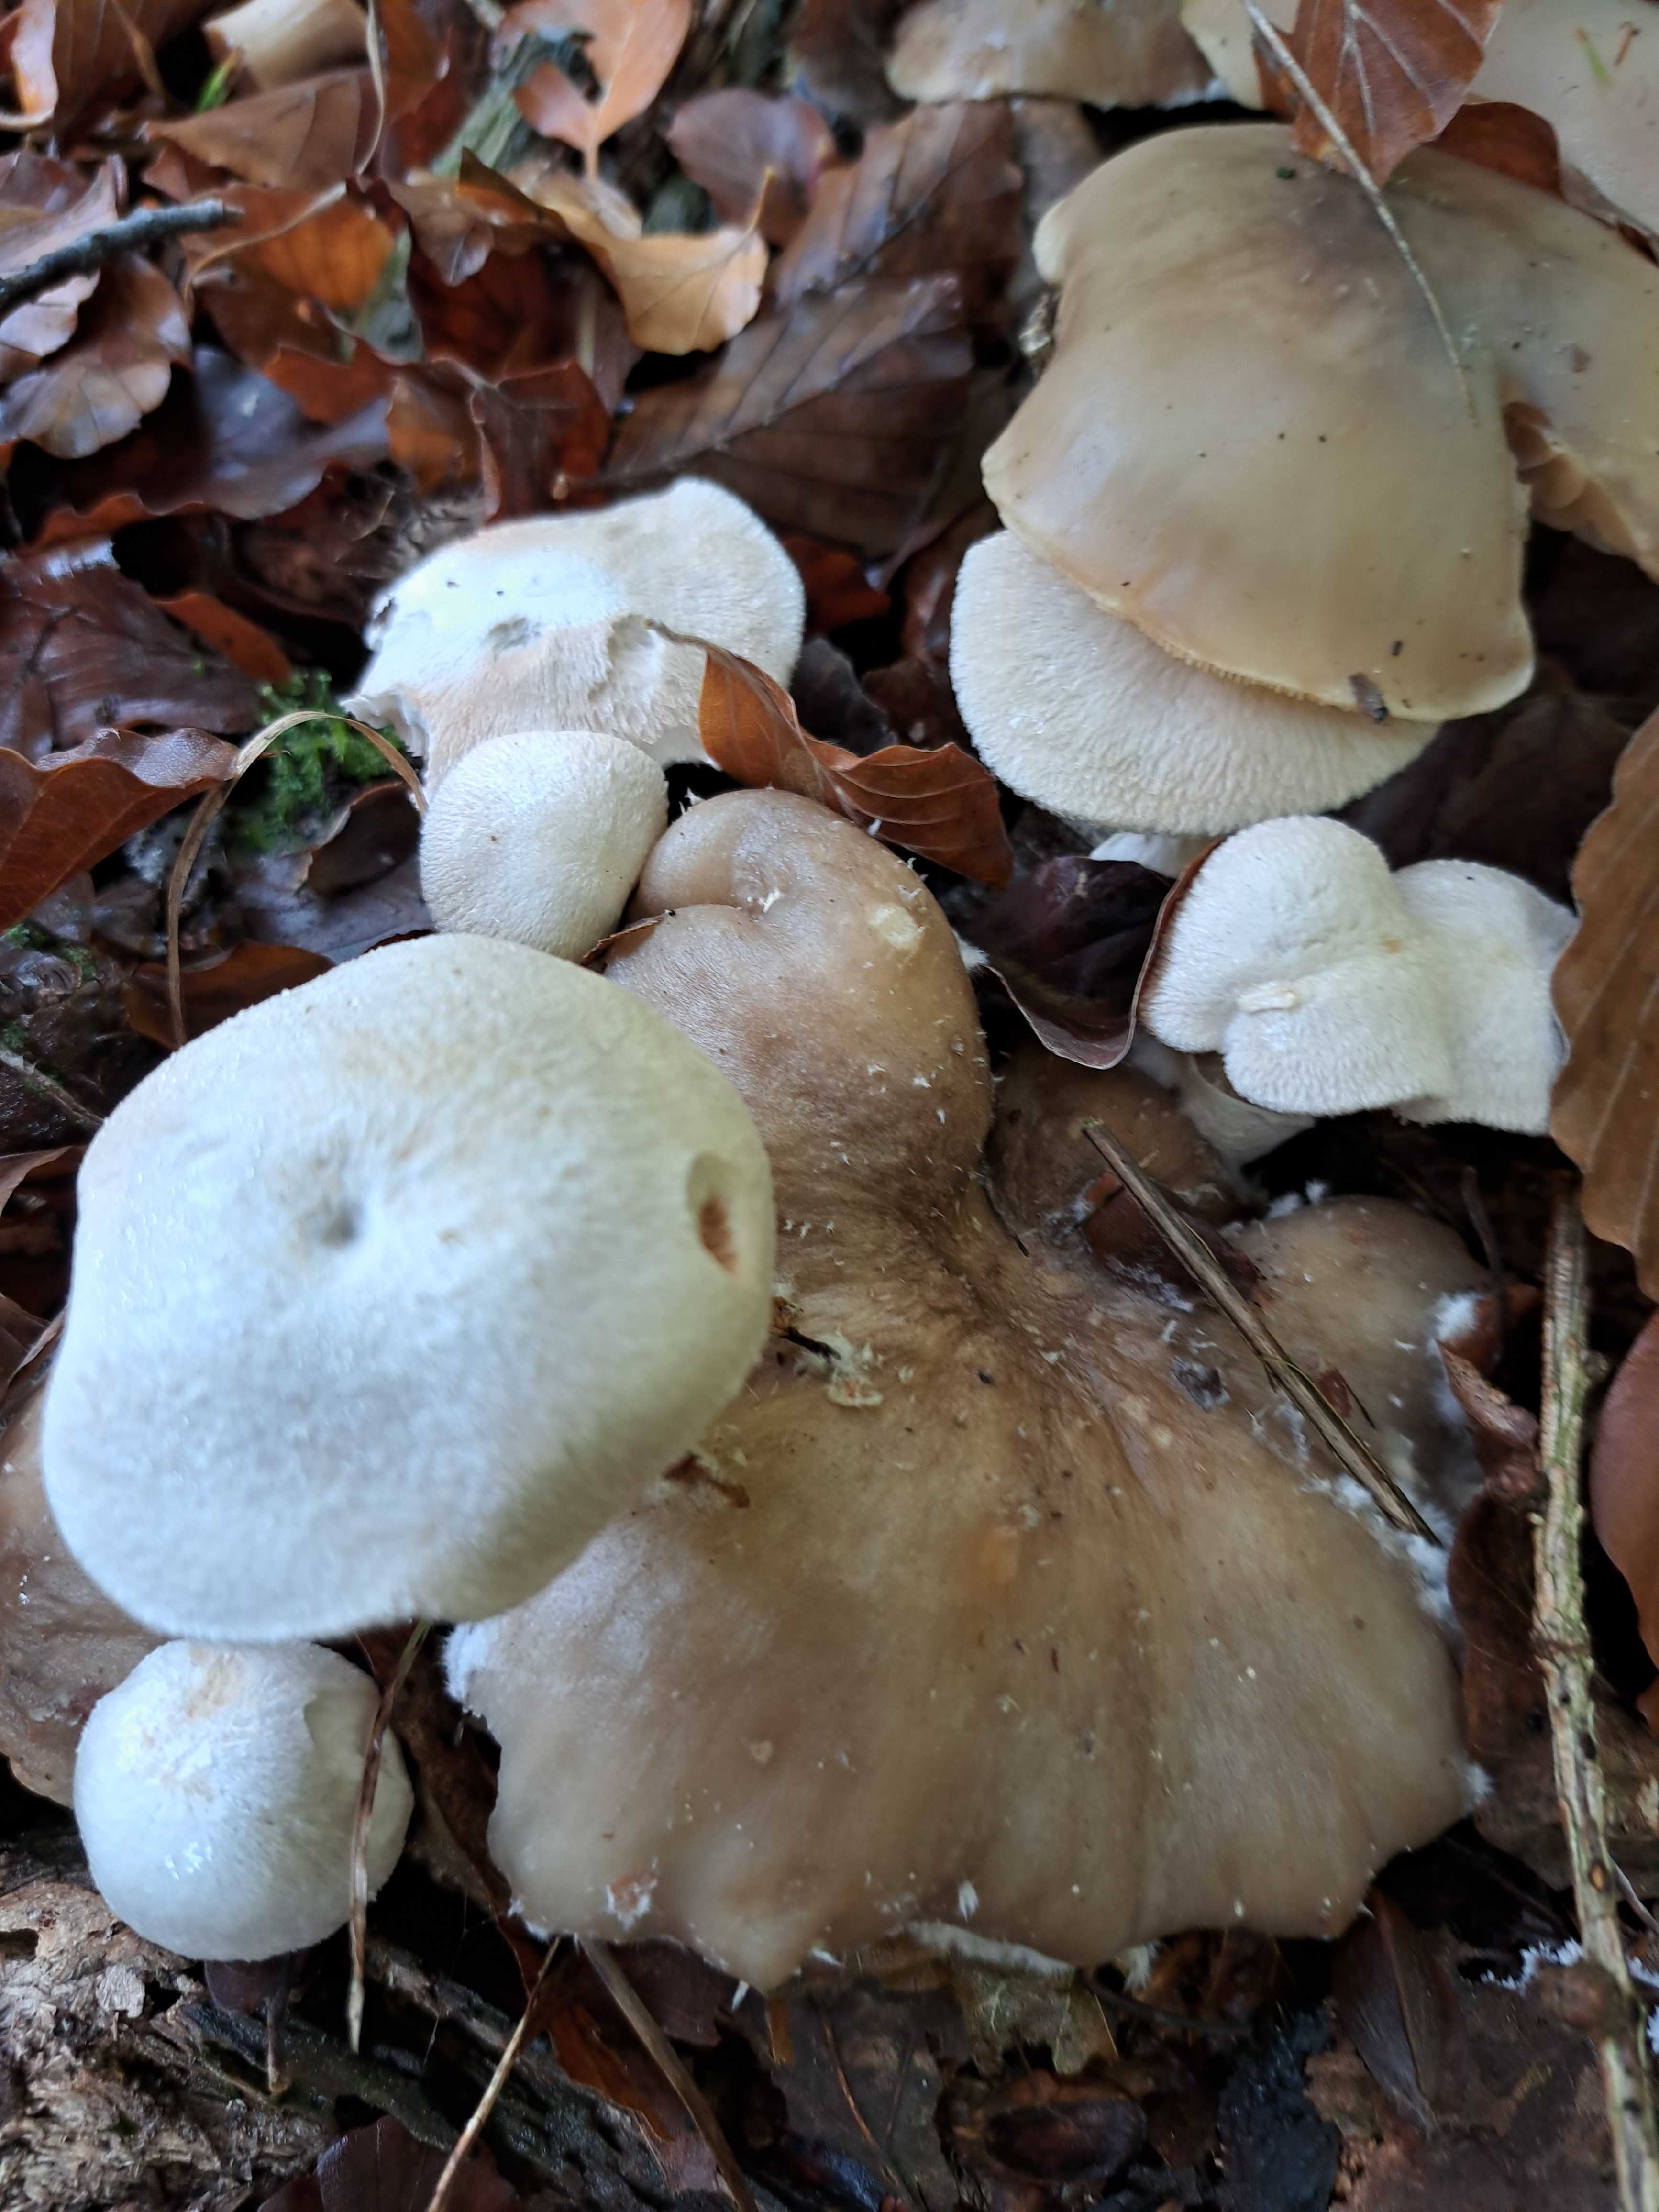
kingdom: Fungi
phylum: Basidiomycota
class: Agaricomycetes
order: Agaricales
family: Pluteaceae
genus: Volvariella
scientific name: Volvariella surrecta
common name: snyltende posesvamp
